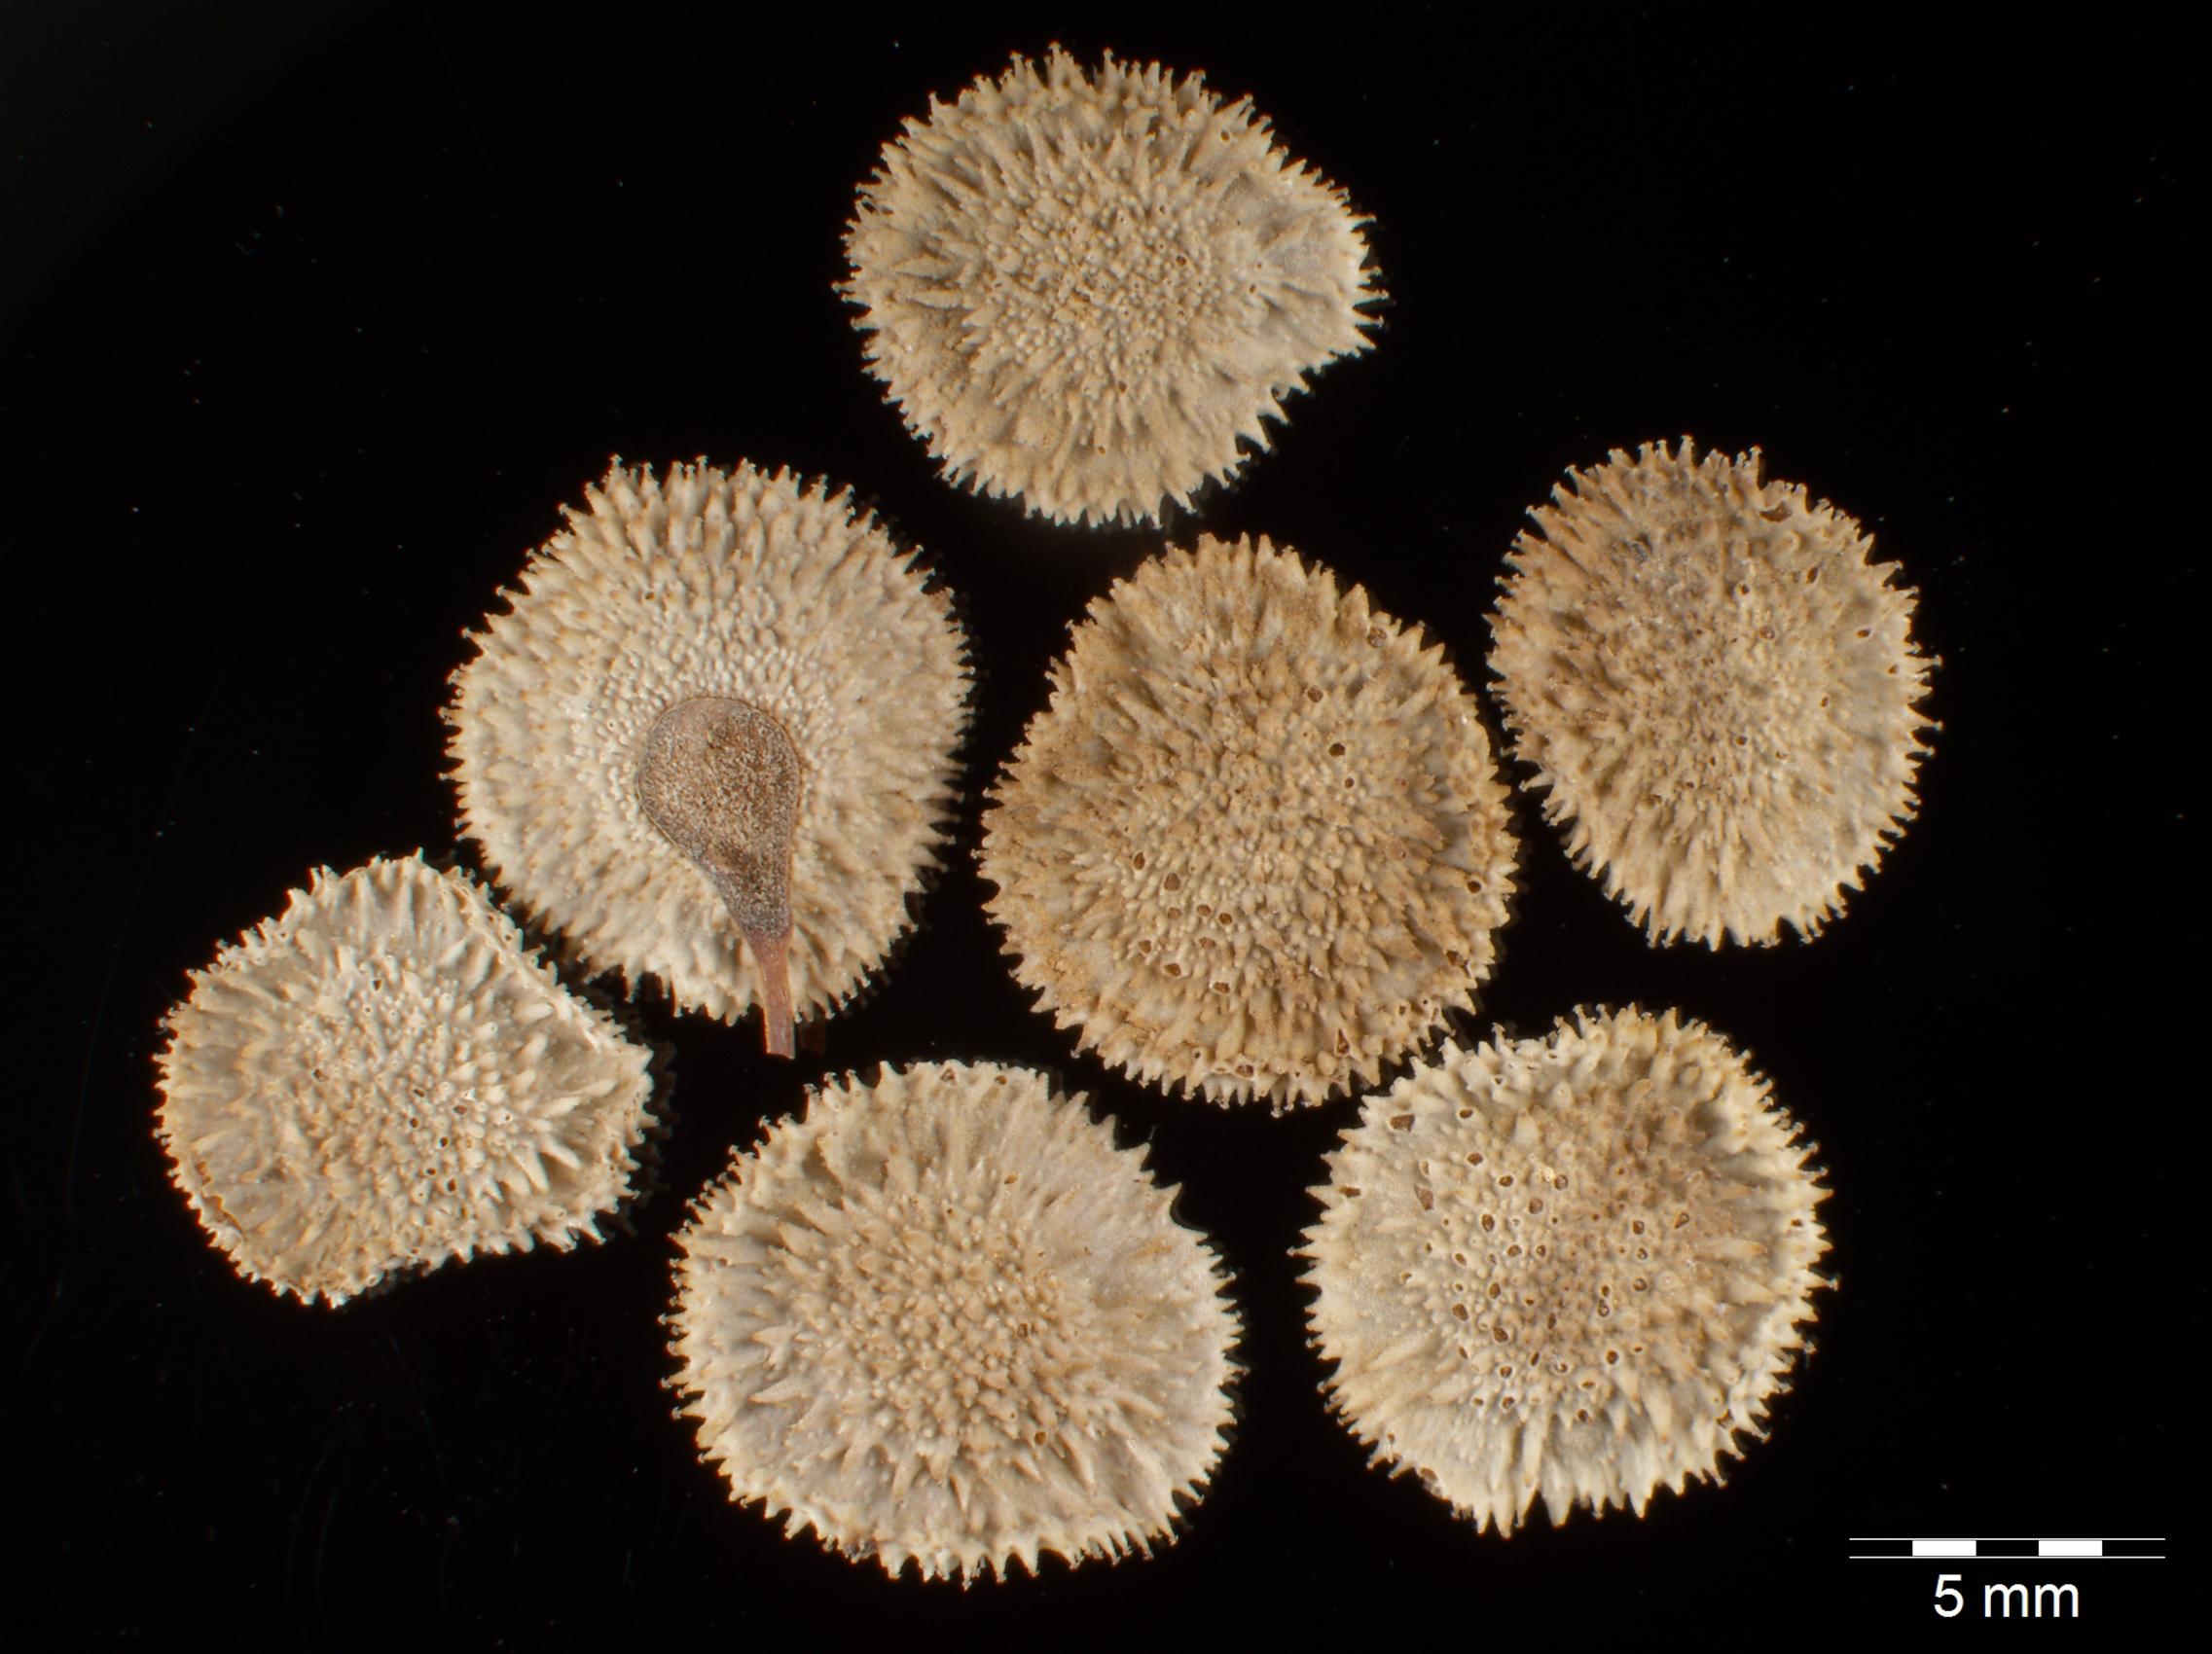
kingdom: Plantae
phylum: Tracheophyta
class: Magnoliopsida
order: Boraginales
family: Boraginaceae
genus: Rindera
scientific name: Rindera columnae
